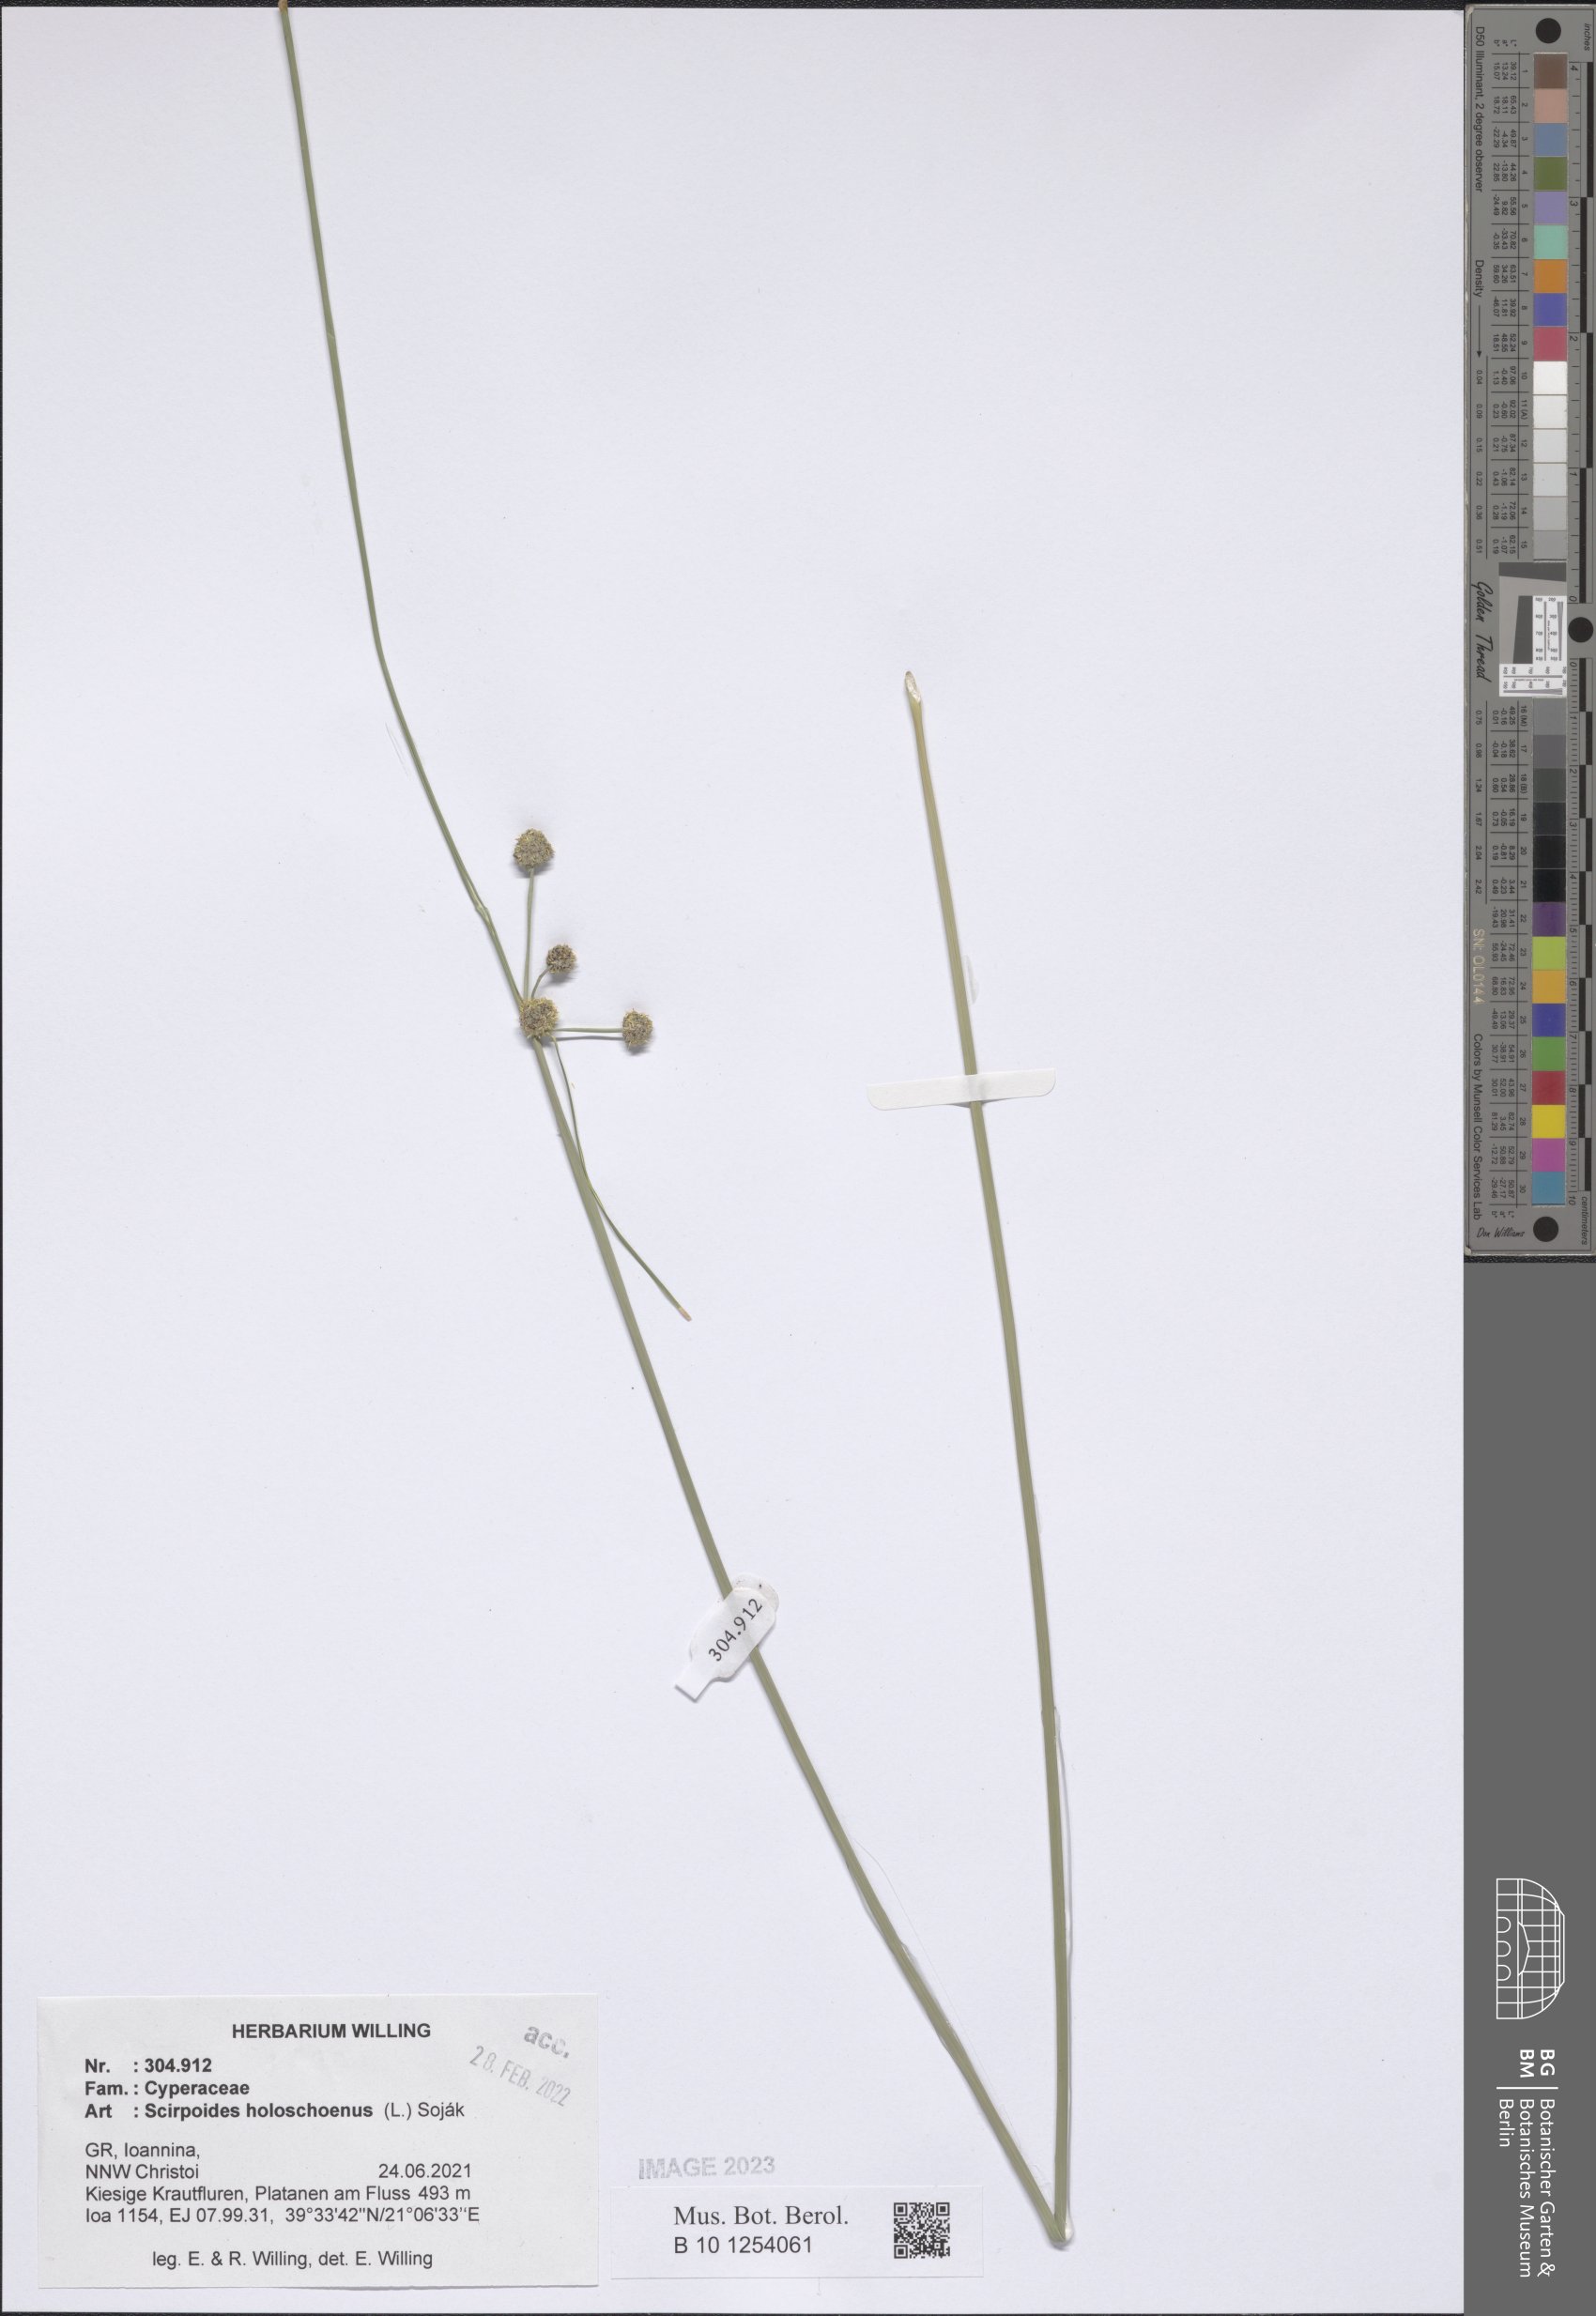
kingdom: Plantae
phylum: Tracheophyta
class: Liliopsida
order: Poales
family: Cyperaceae
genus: Scirpoides
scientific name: Scirpoides
